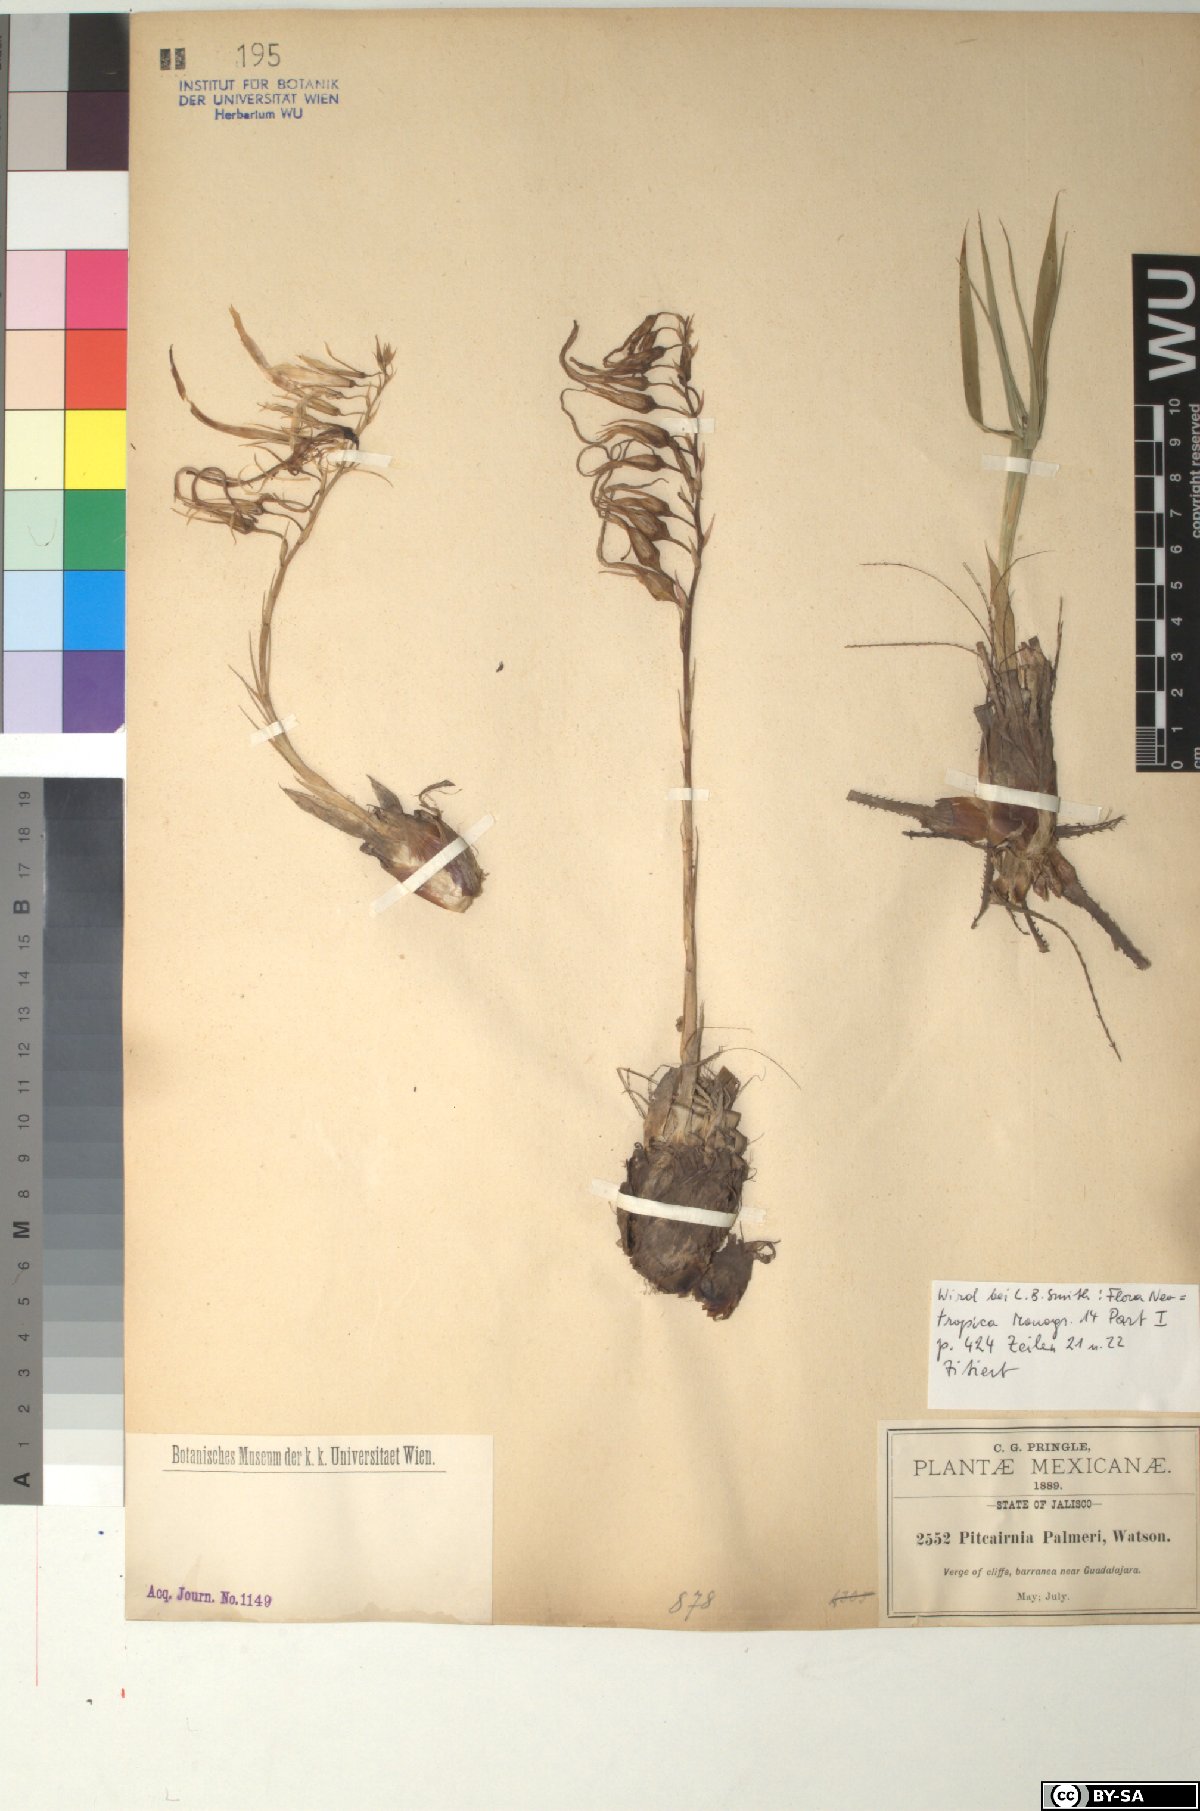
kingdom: Plantae
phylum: Tracheophyta
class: Liliopsida
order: Poales
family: Bromeliaceae
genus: Pitcairnia
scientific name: Pitcairnia palmeri
